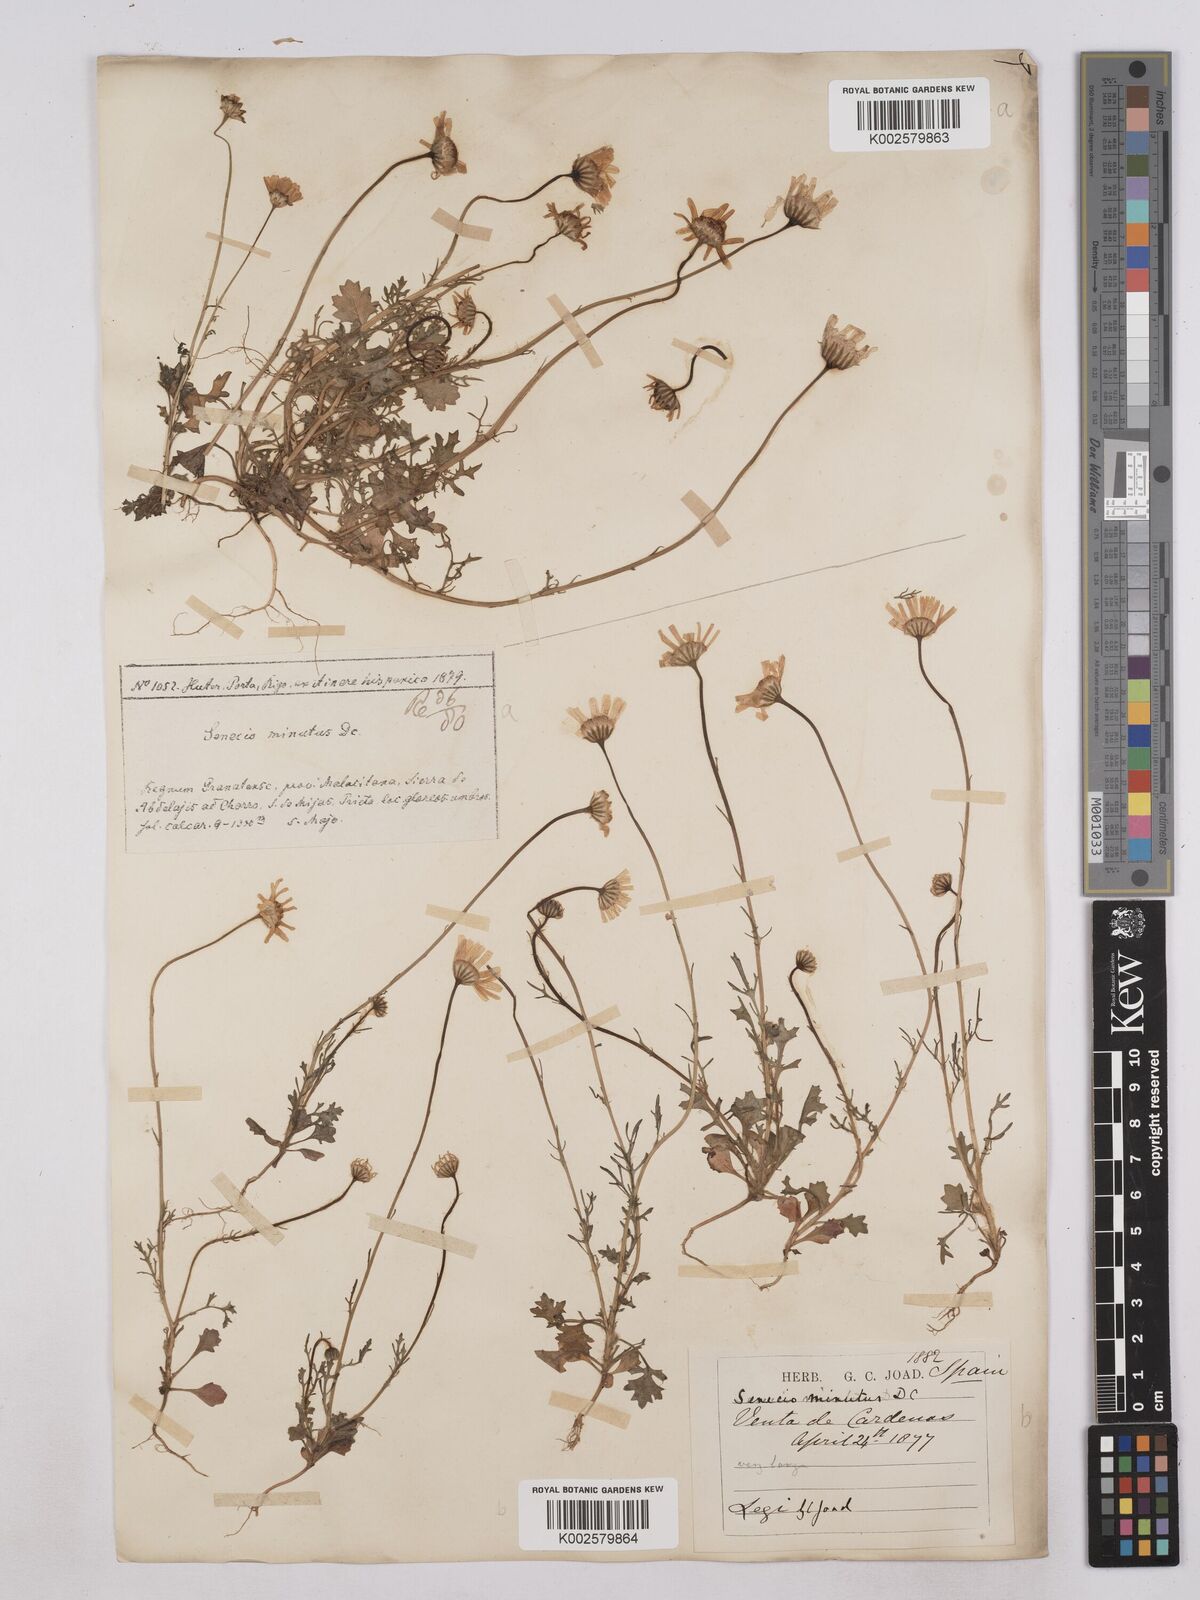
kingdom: Plantae
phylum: Tracheophyta
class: Magnoliopsida
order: Asterales
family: Asteraceae
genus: Jacobaea
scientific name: Jacobaea minuta
